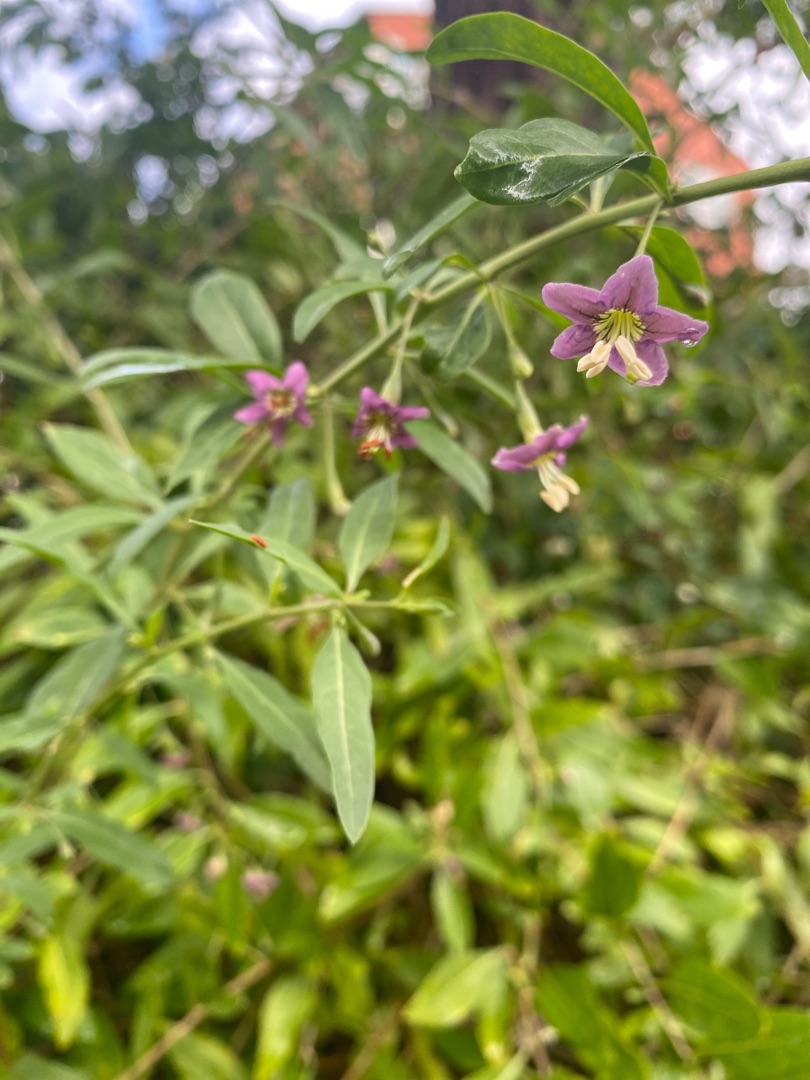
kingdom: Plantae
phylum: Tracheophyta
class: Magnoliopsida
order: Solanales
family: Solanaceae
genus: Lycium
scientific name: Lycium barbarum
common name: Bukketorn
